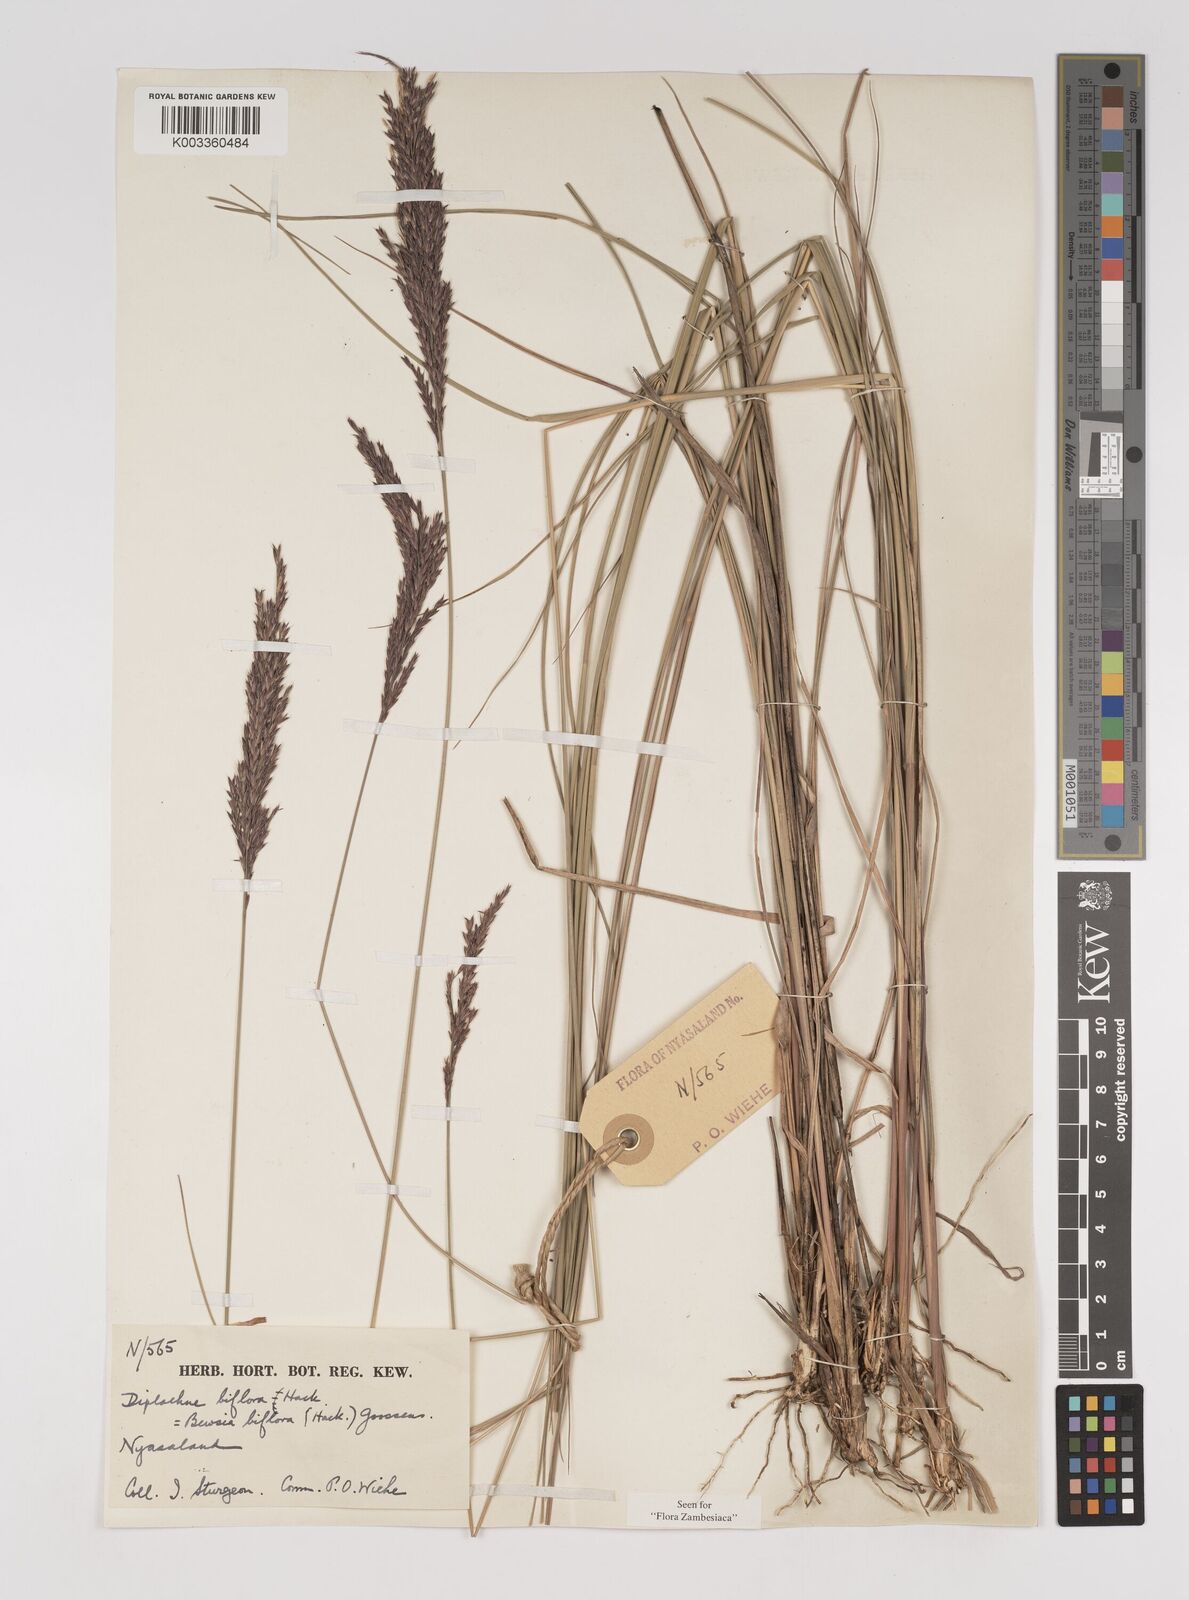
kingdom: Plantae
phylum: Tracheophyta
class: Liliopsida
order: Poales
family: Poaceae
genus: Bewsia
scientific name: Bewsia biflora
